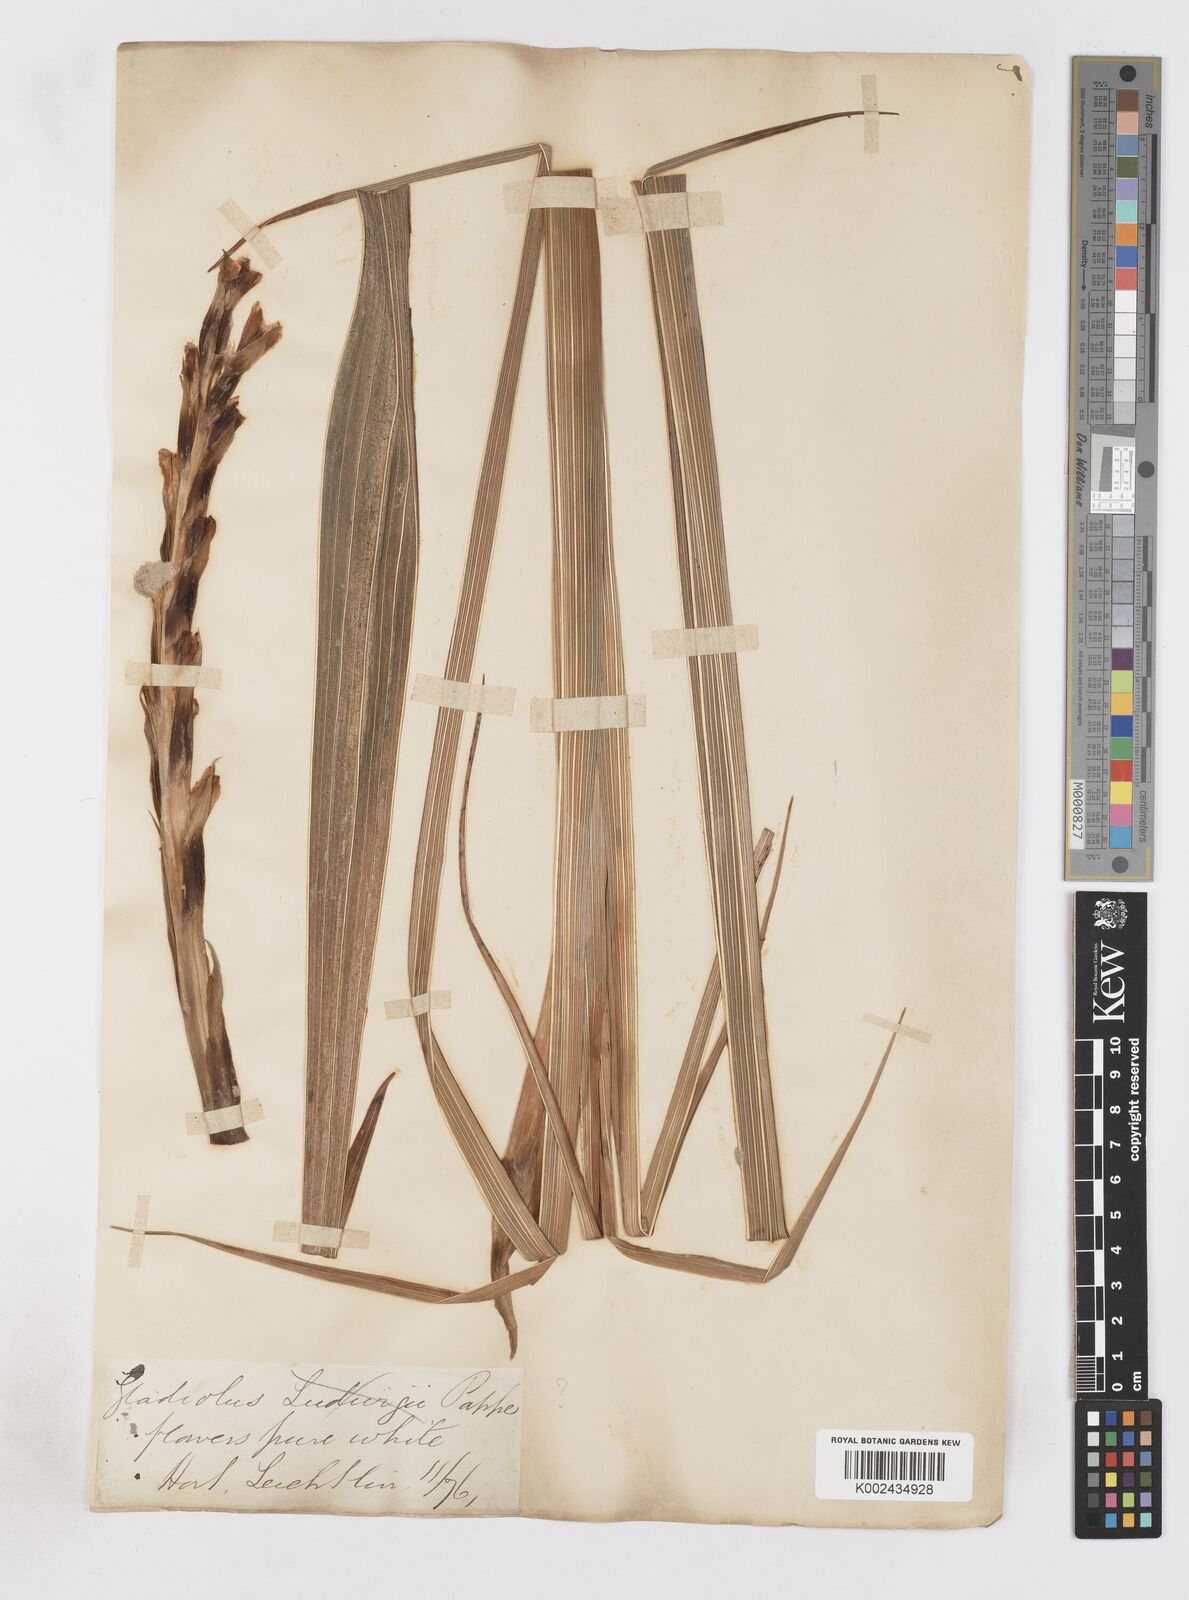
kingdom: Plantae
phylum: Tracheophyta
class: Liliopsida
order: Asparagales
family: Iridaceae
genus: Gladiolus
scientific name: Gladiolus sericeovillosus
